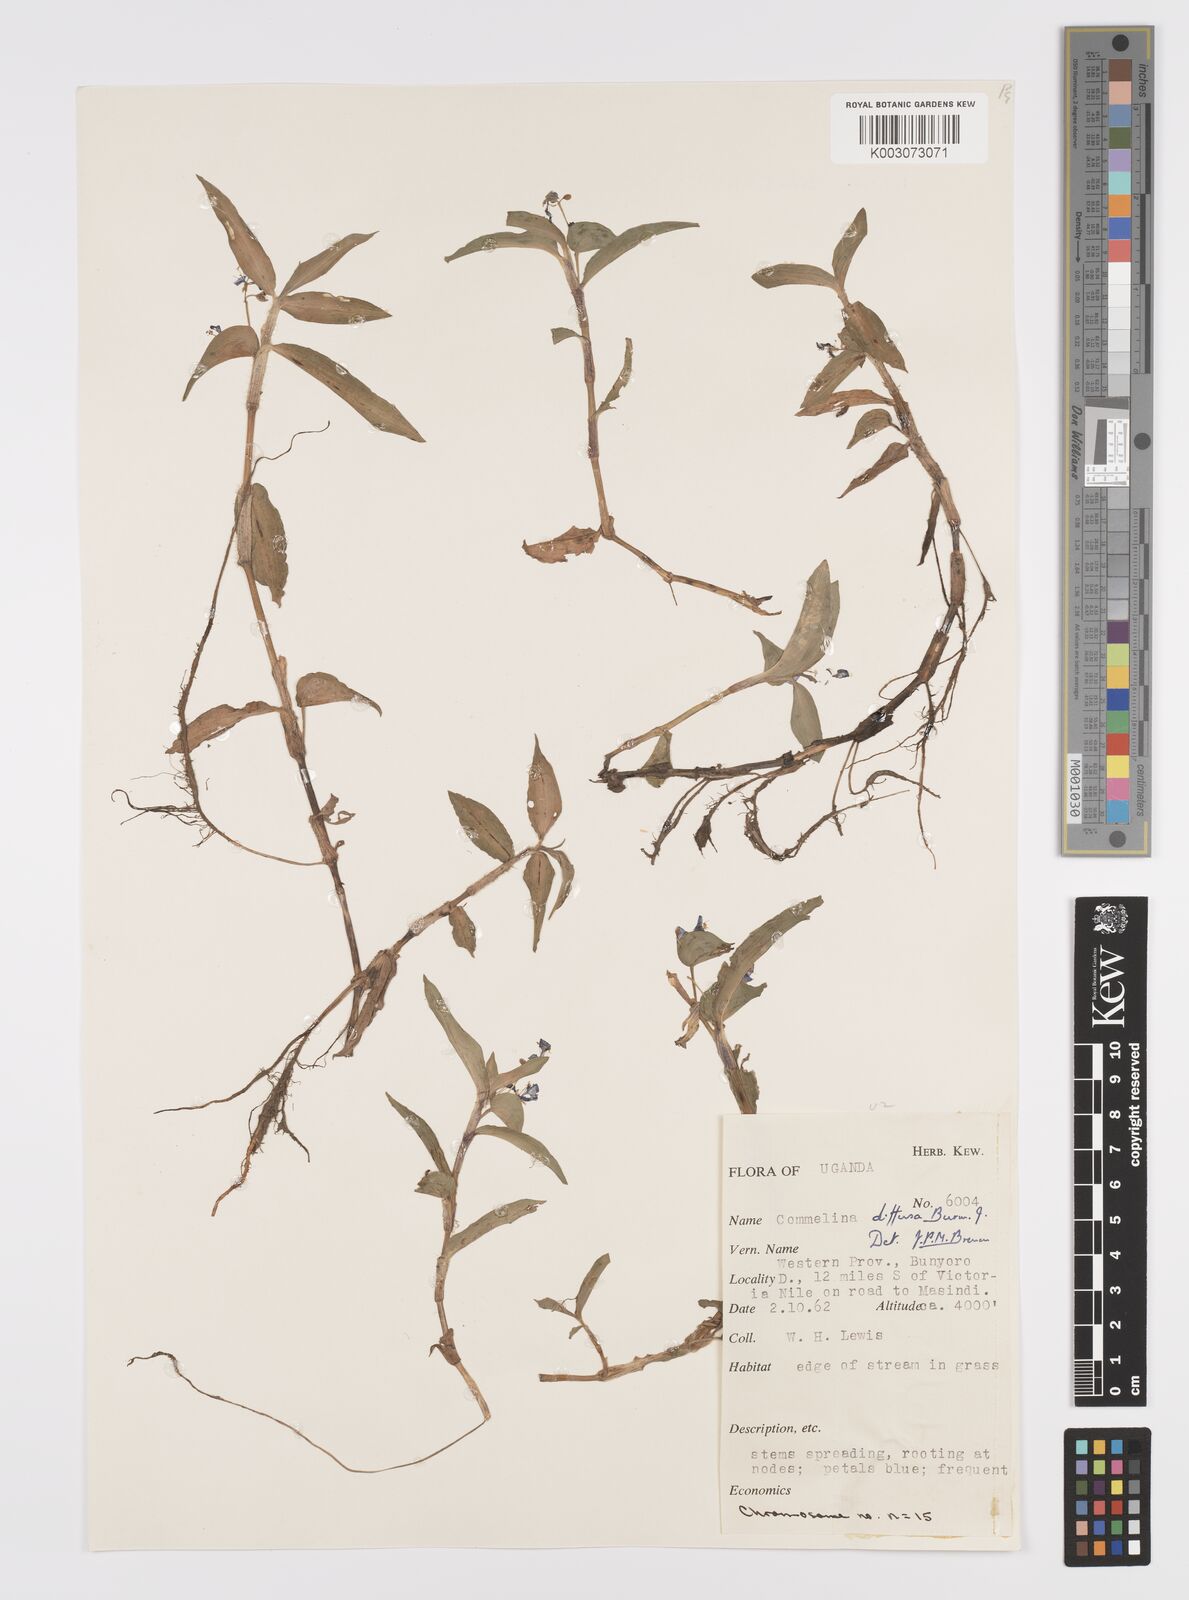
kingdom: Plantae
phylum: Tracheophyta
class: Liliopsida
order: Commelinales
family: Commelinaceae
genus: Commelina
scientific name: Commelina diffusa
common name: Climbing dayflower
